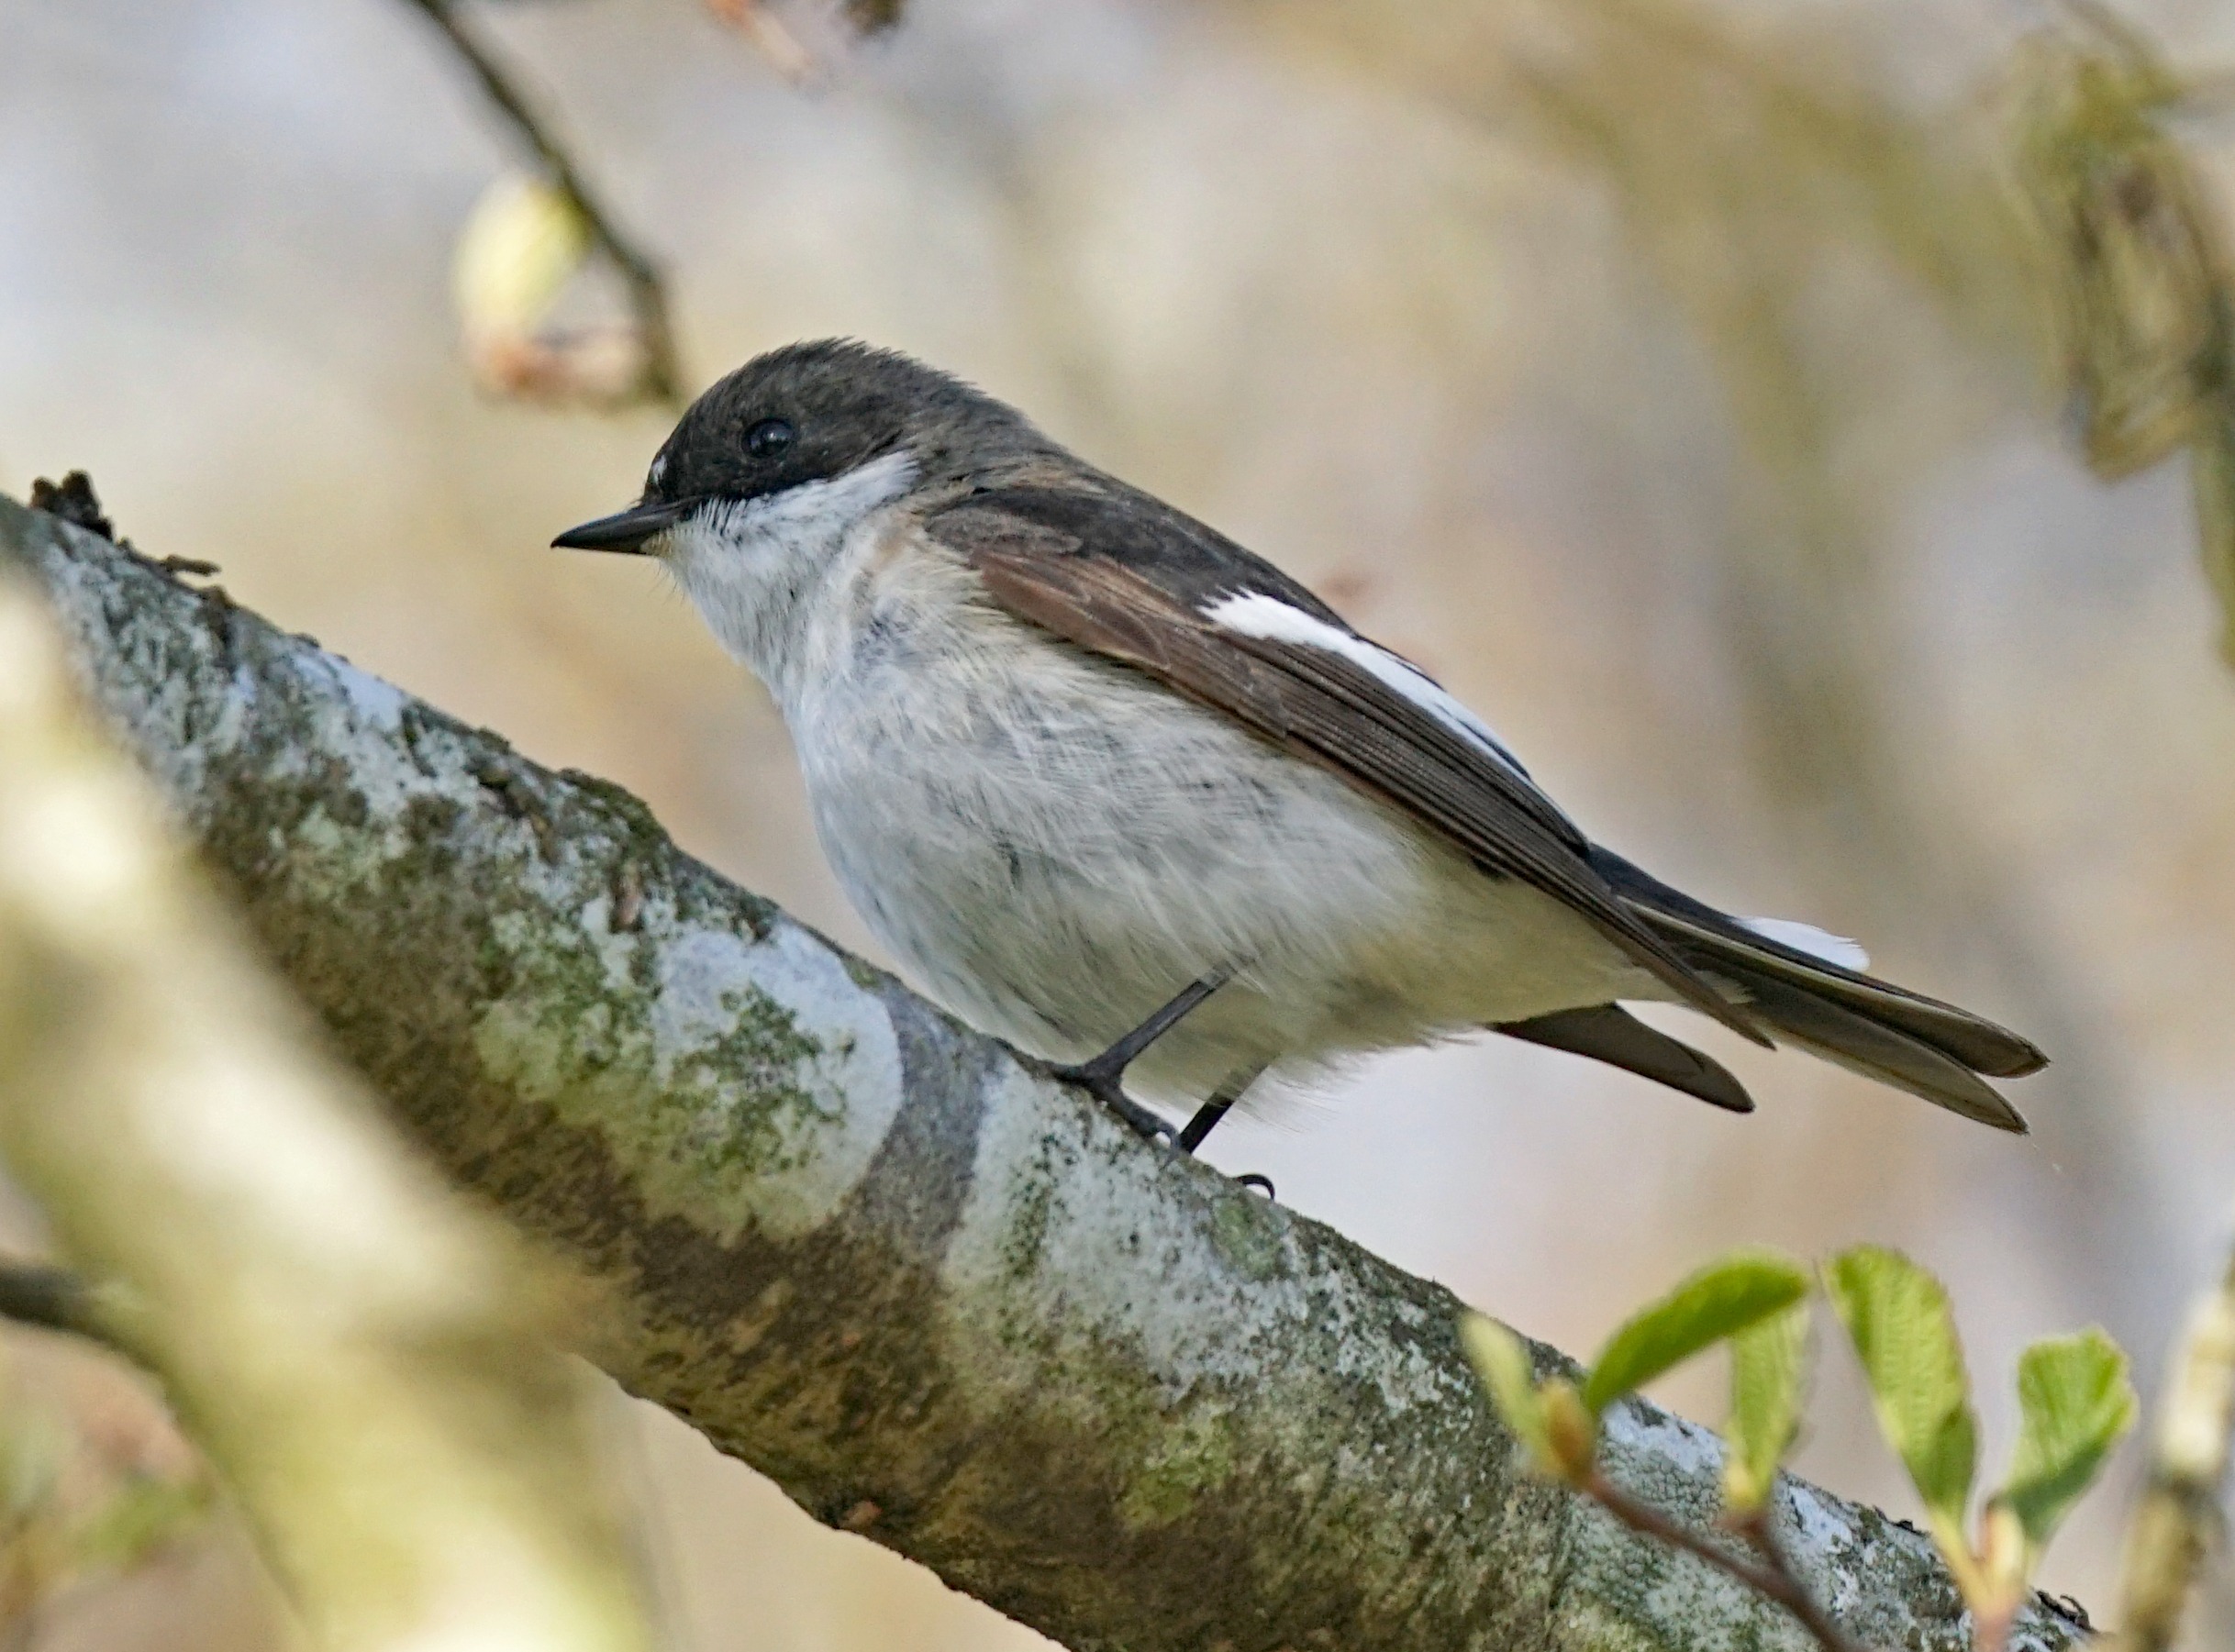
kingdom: Animalia
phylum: Chordata
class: Aves
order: Passeriformes
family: Muscicapidae
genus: Ficedula
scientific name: Ficedula hypoleuca
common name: Broget fluesnapper
